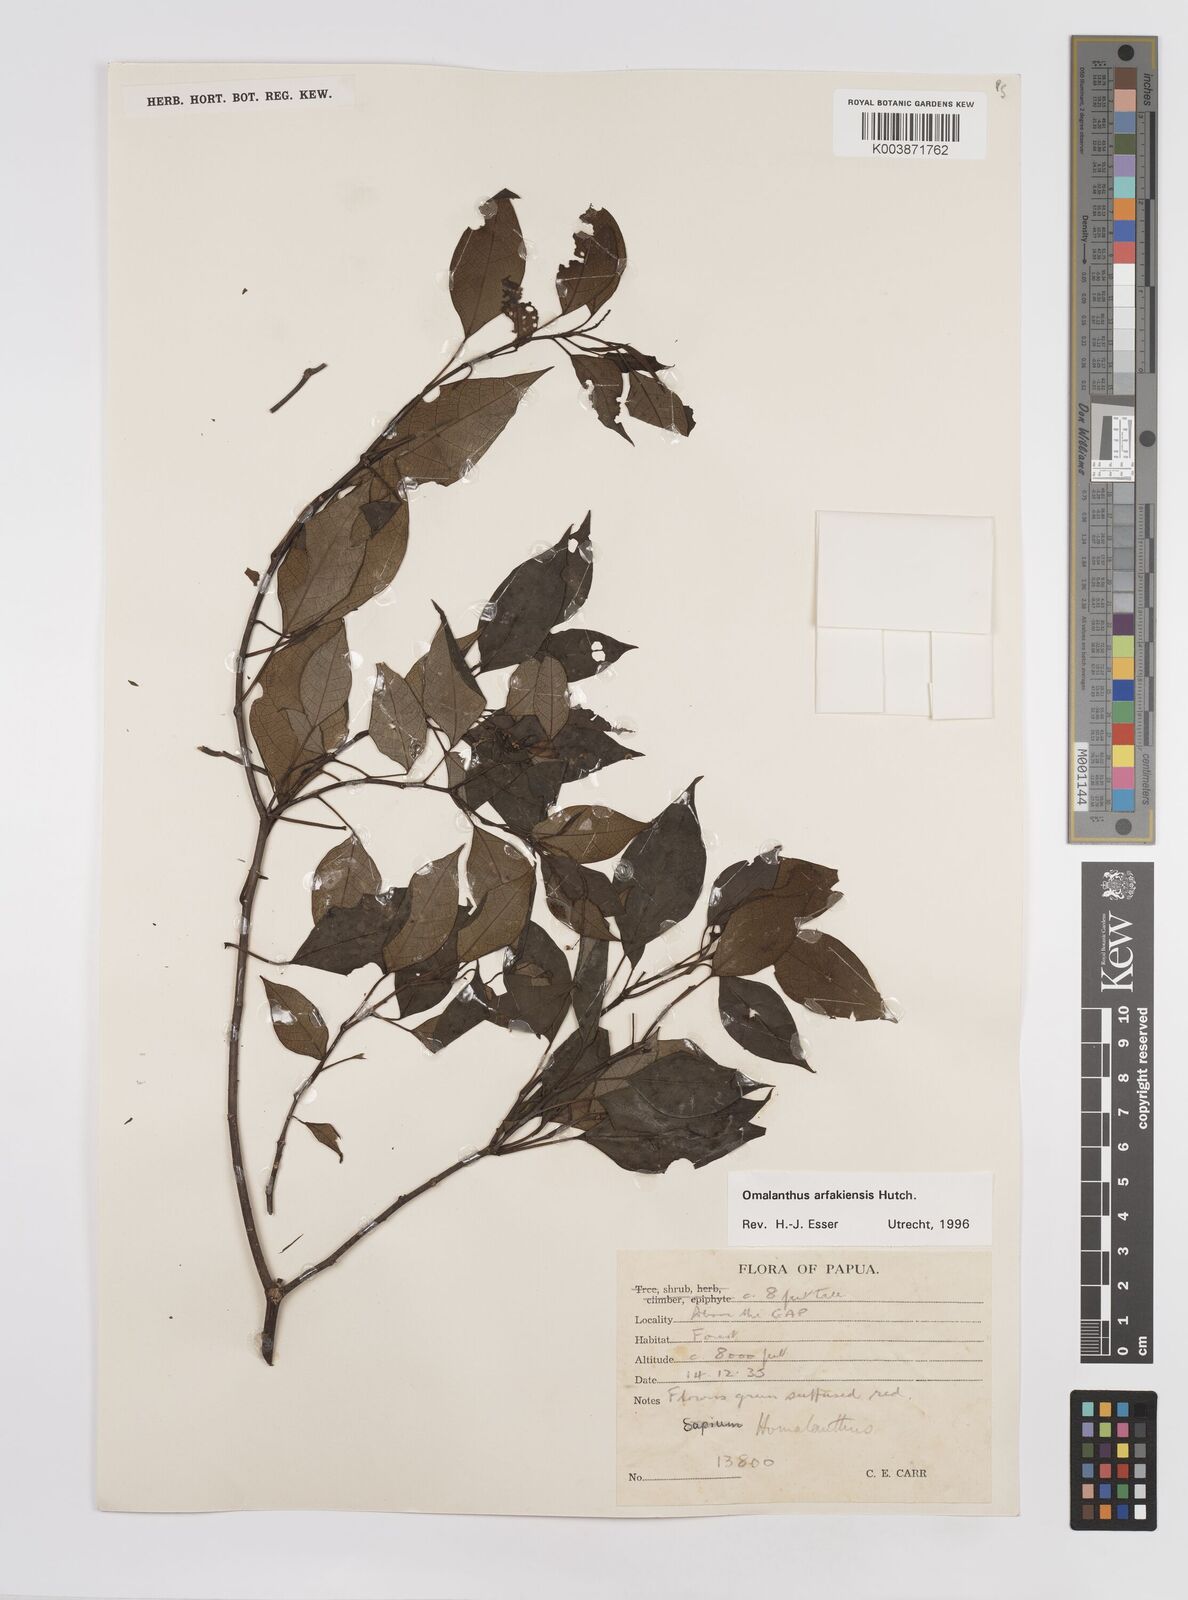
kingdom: Plantae
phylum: Tracheophyta
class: Magnoliopsida
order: Malpighiales
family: Euphorbiaceae
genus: Homalanthus
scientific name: Homalanthus arfakiensis
